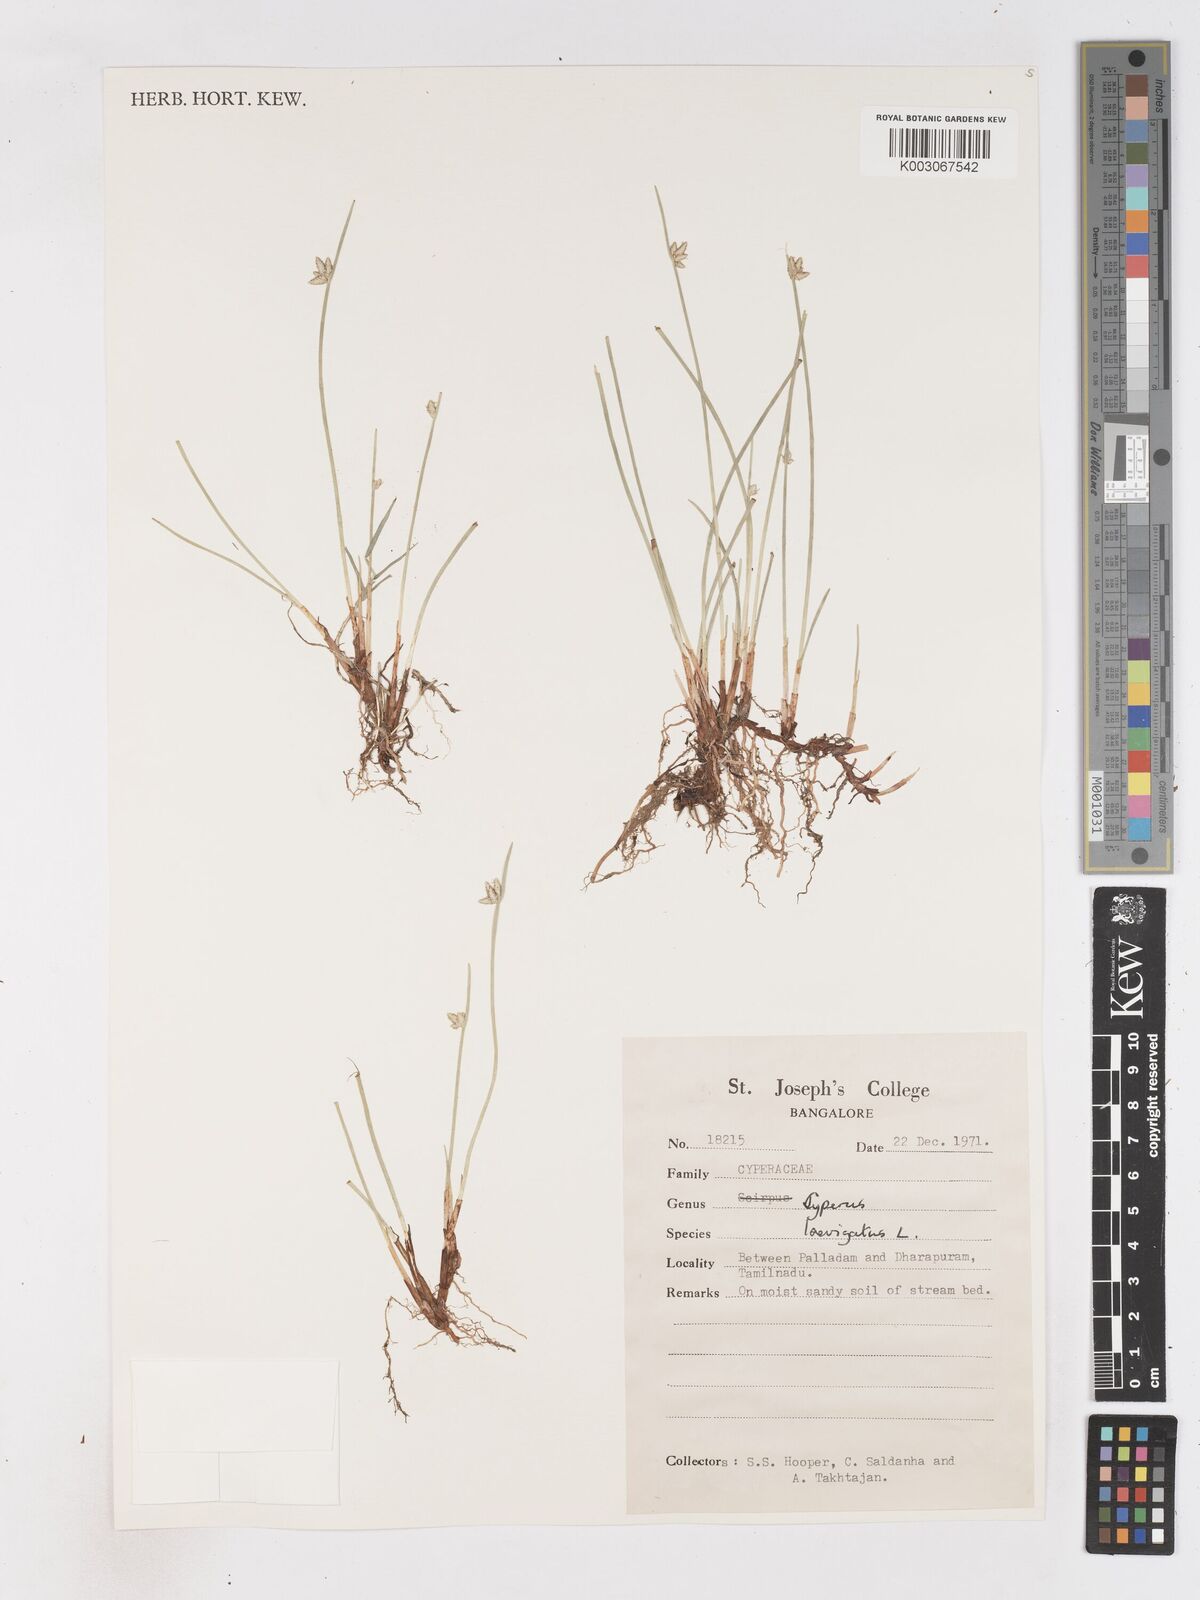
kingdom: Plantae
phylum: Tracheophyta
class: Liliopsida
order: Poales
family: Cyperaceae
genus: Cyperus
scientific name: Cyperus laevigatus
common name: Smooth flat sedge
